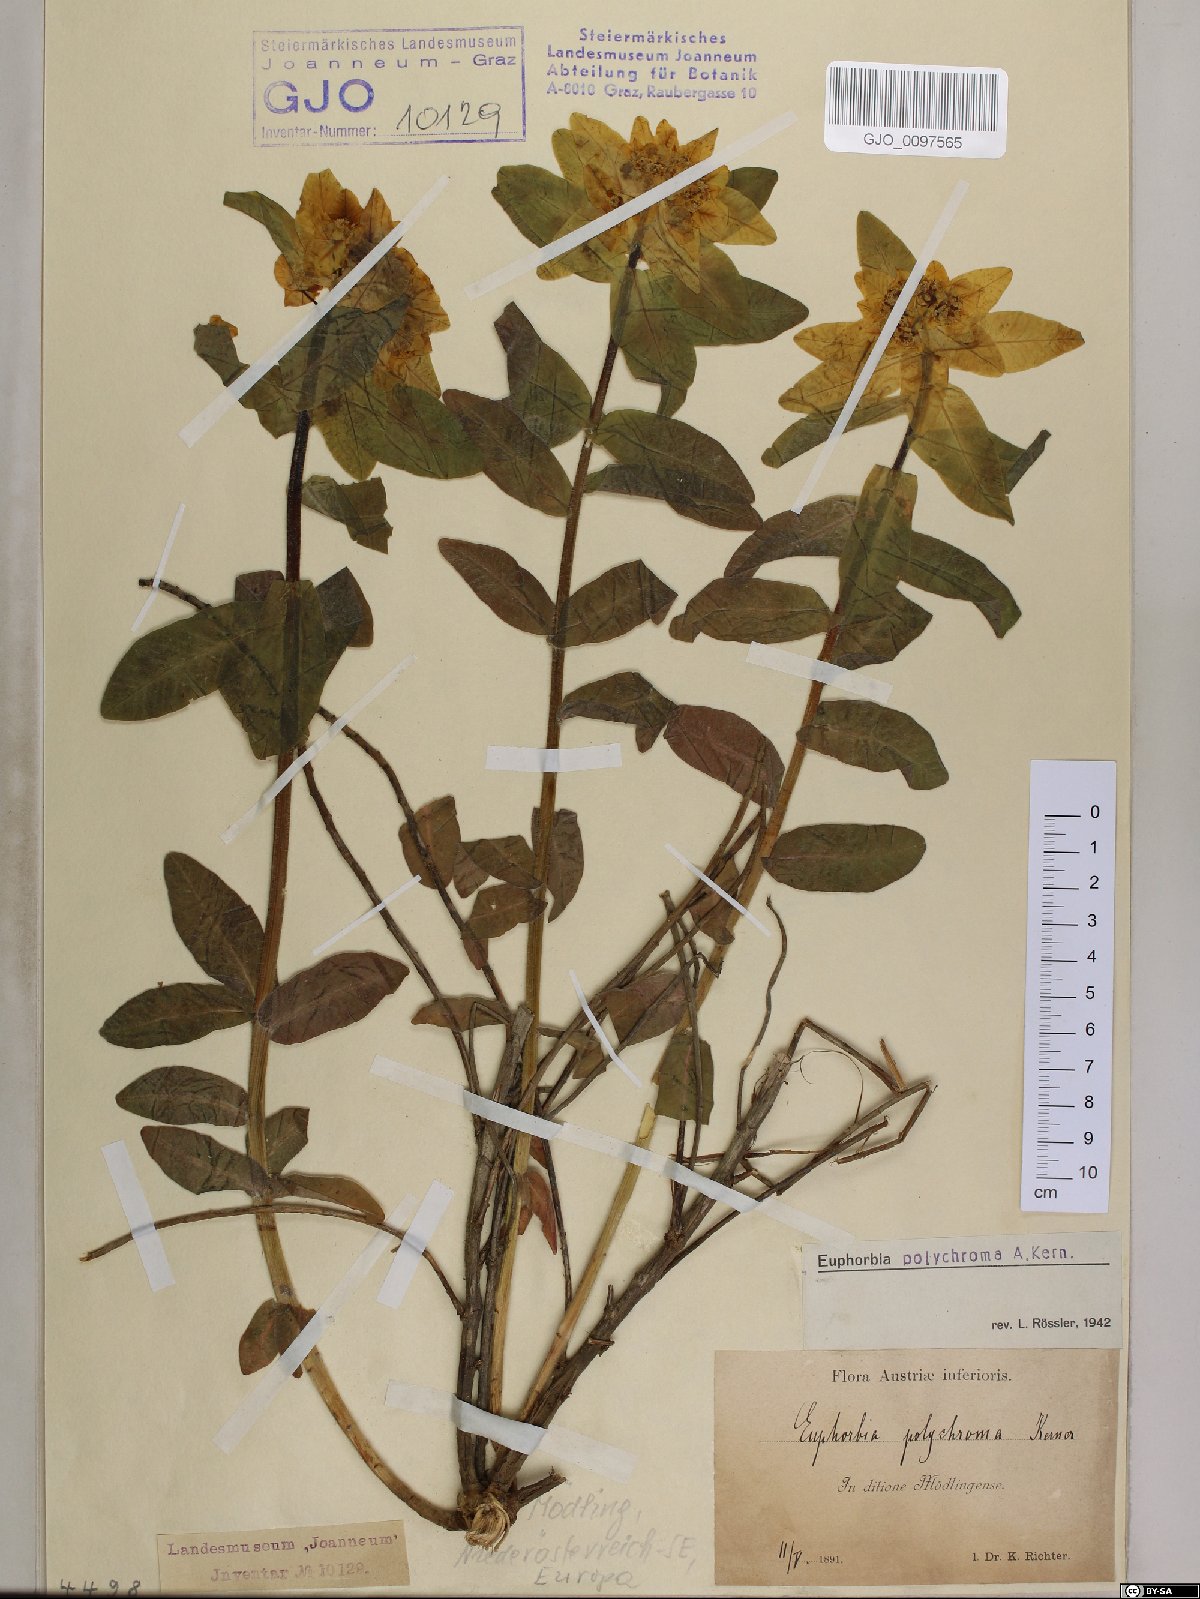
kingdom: Plantae
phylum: Tracheophyta
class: Magnoliopsida
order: Malpighiales
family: Euphorbiaceae
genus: Euphorbia
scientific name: Euphorbia epithymoides
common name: Cushion spurge
